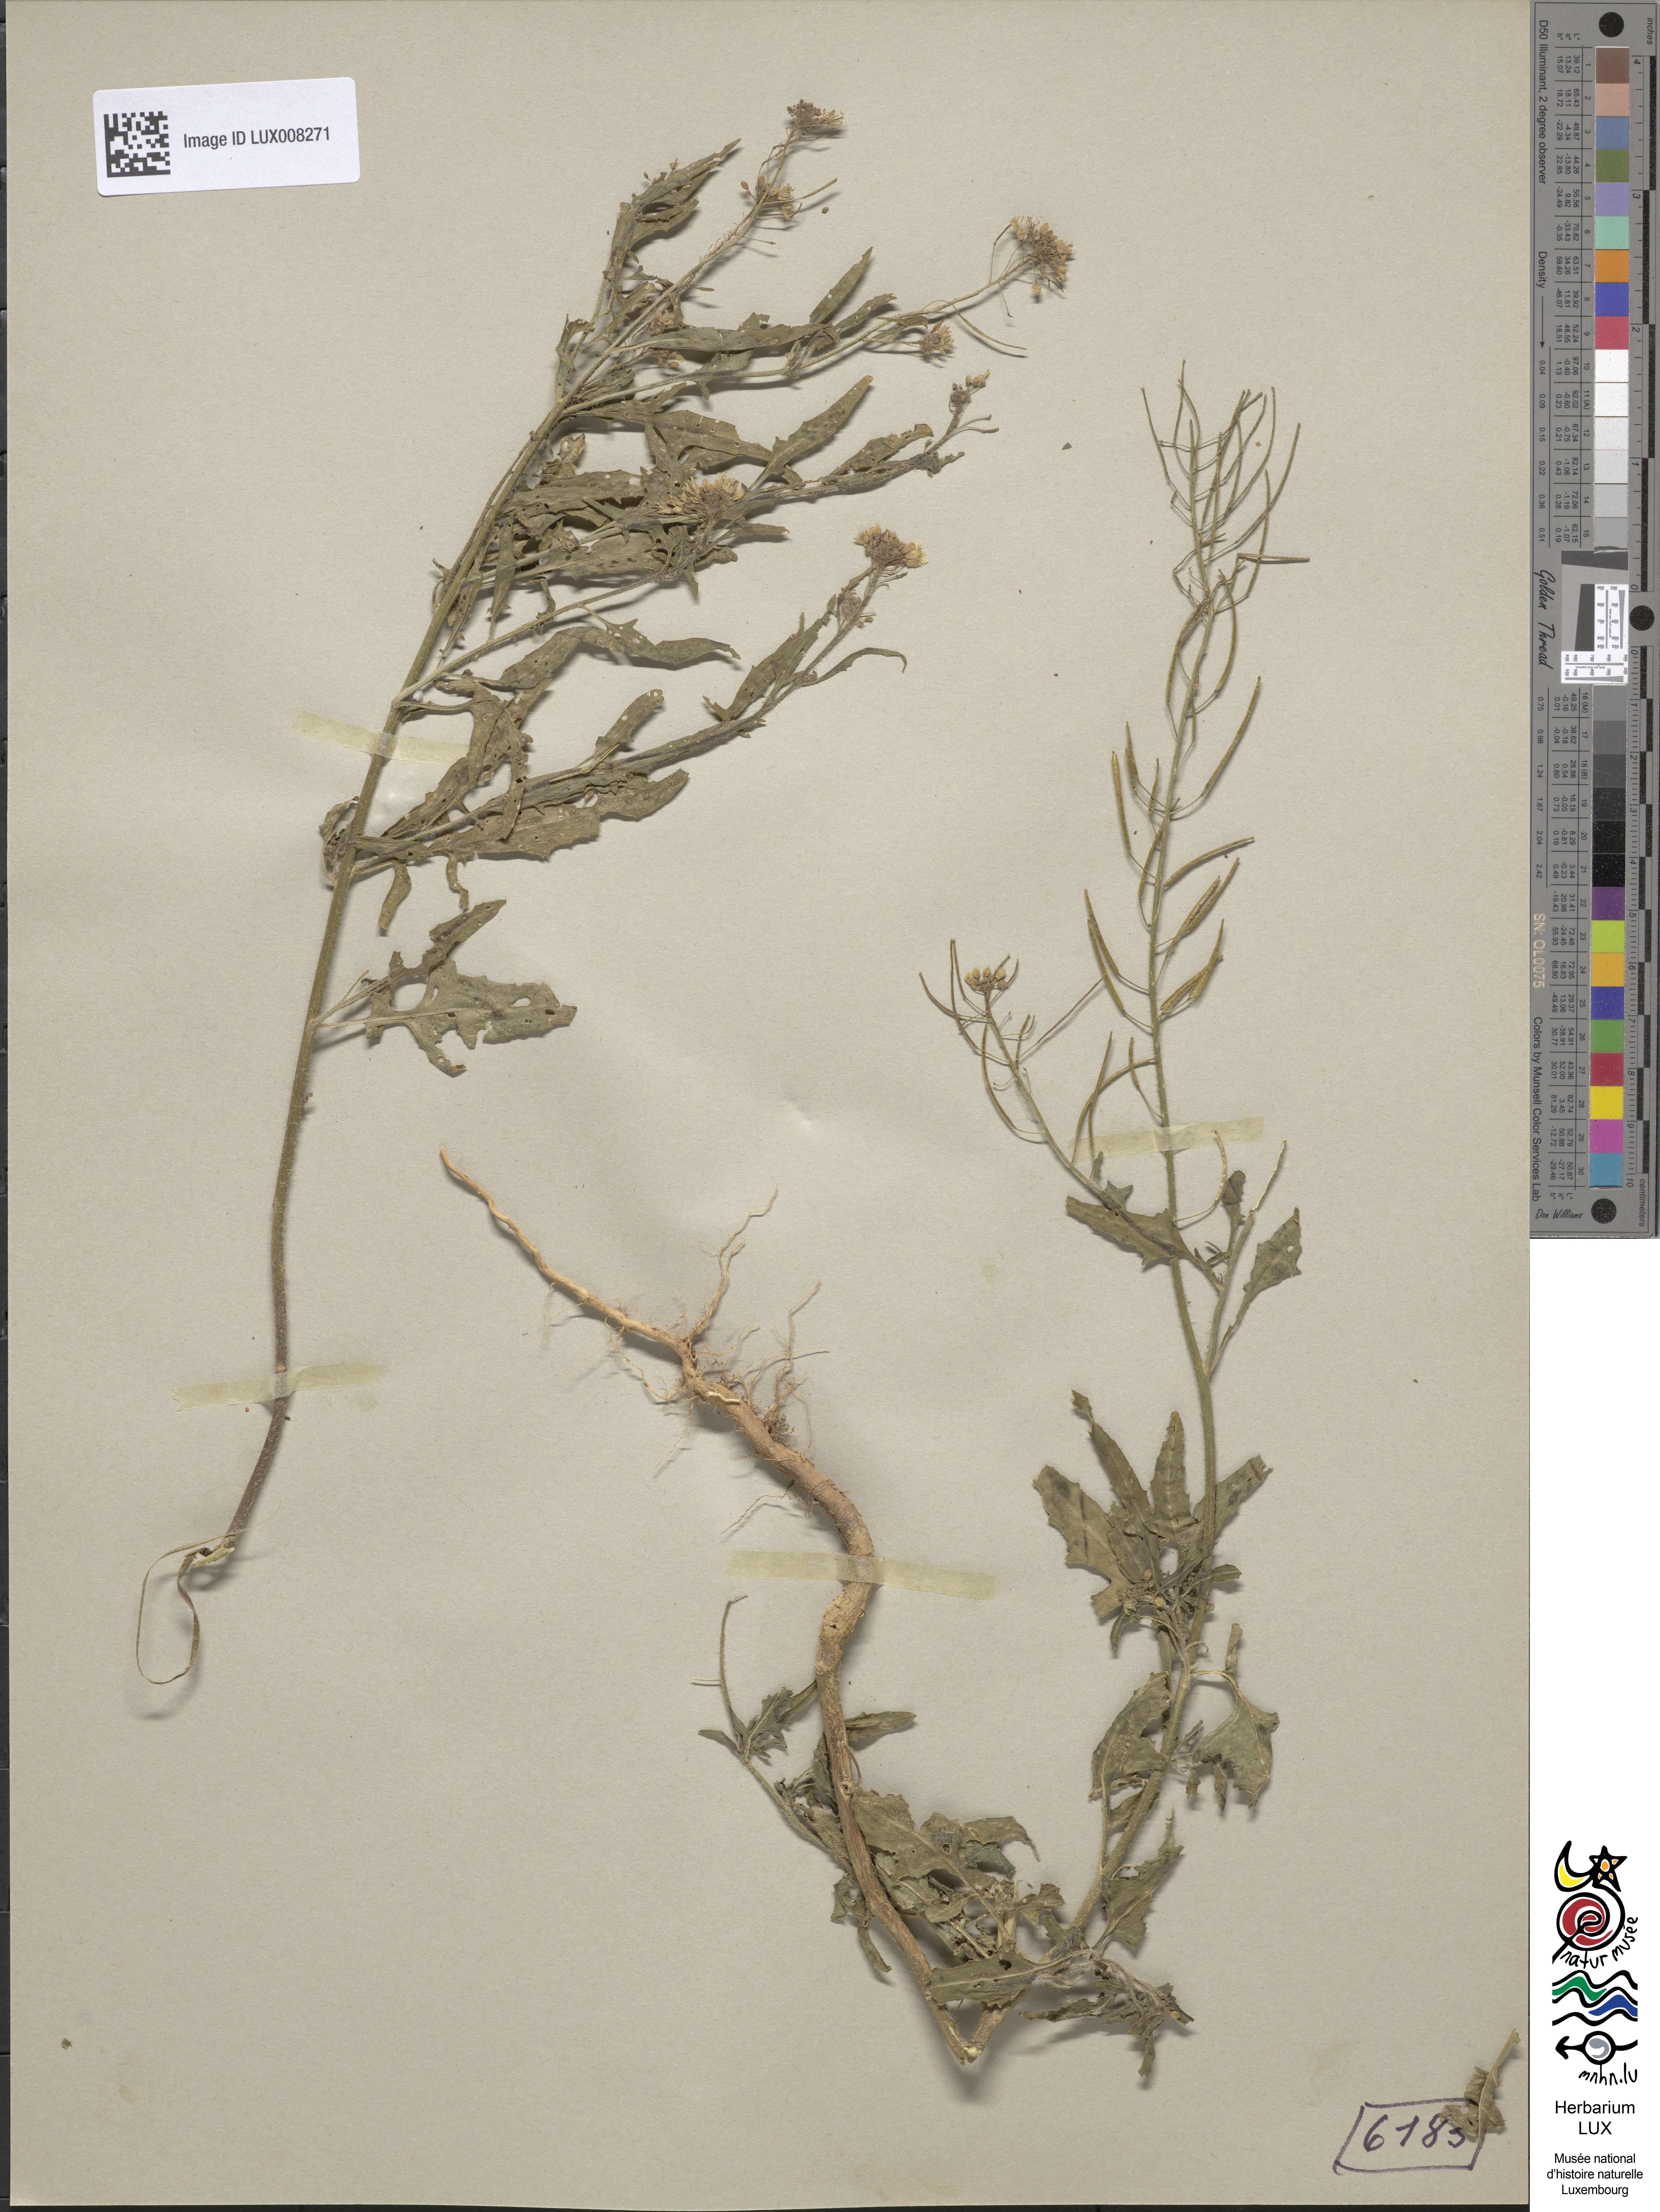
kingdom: Plantae
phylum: Tracheophyta
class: Magnoliopsida
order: Brassicales
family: Brassicaceae
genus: Sisymbrium
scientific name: Sisymbrium loeselii
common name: False london-rocket
